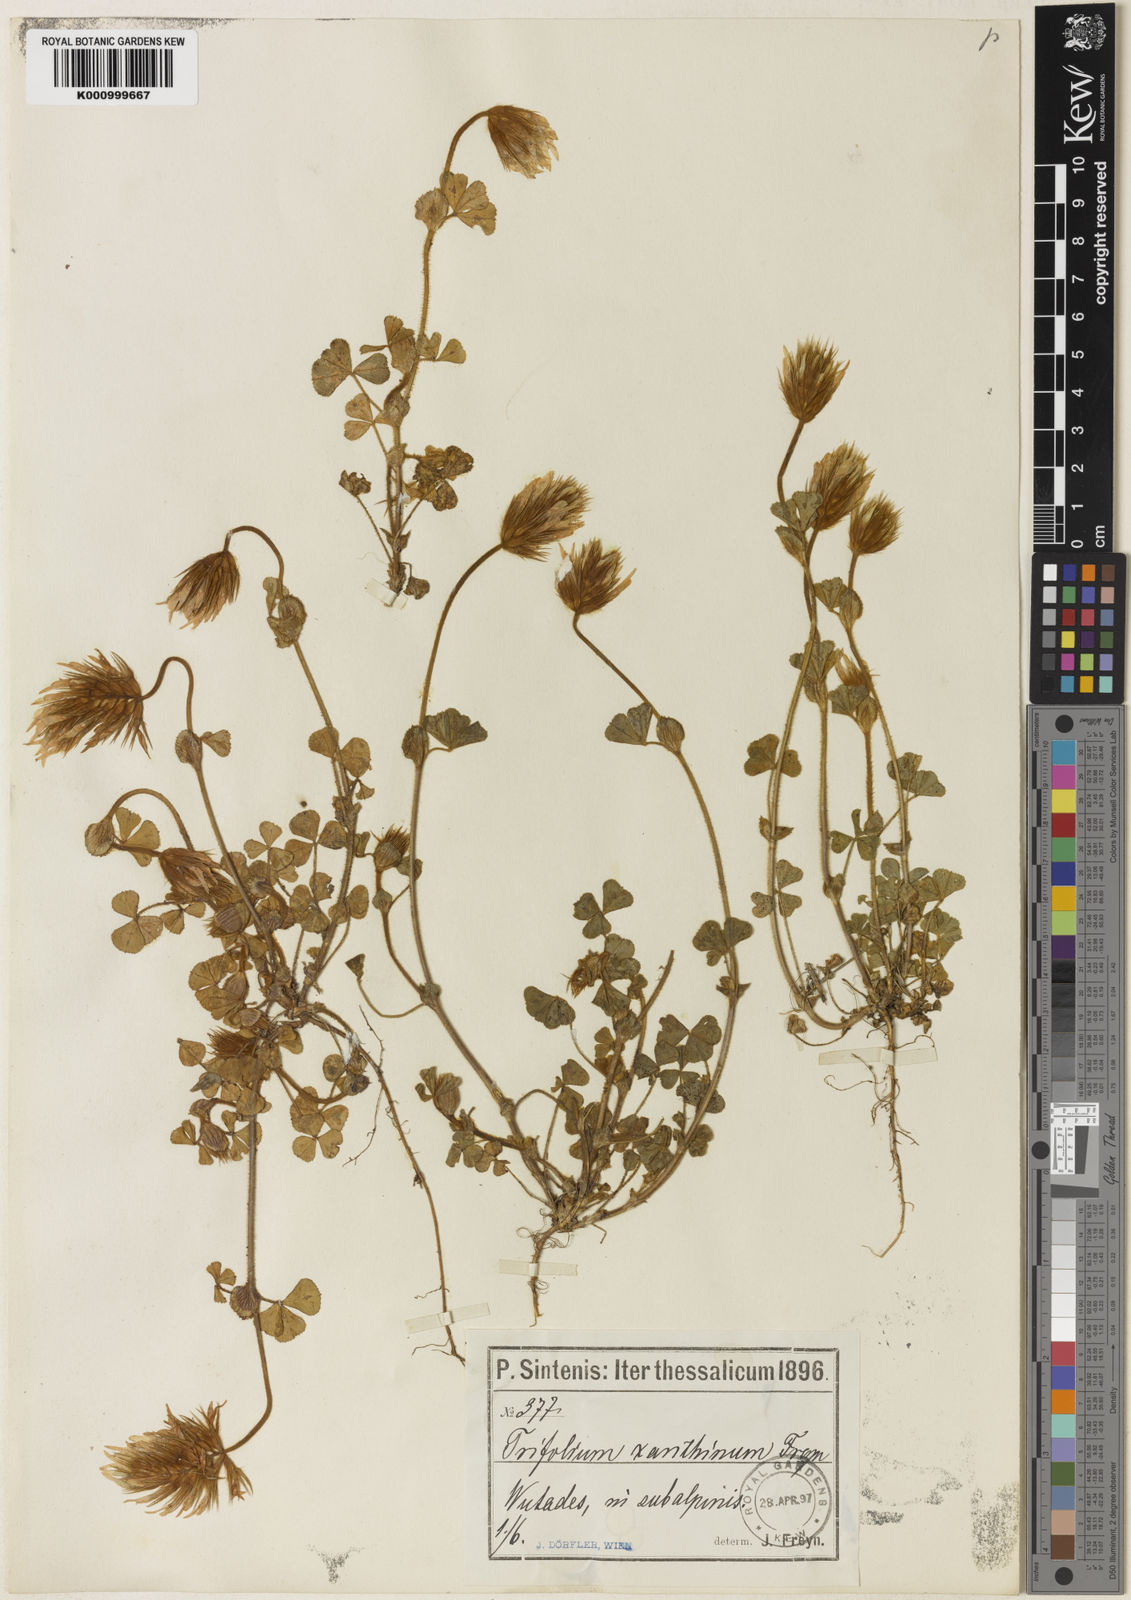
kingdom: Plantae
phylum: Tracheophyta
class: Magnoliopsida
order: Fabales
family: Fabaceae
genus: Trifolium
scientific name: Trifolium xanthinum
